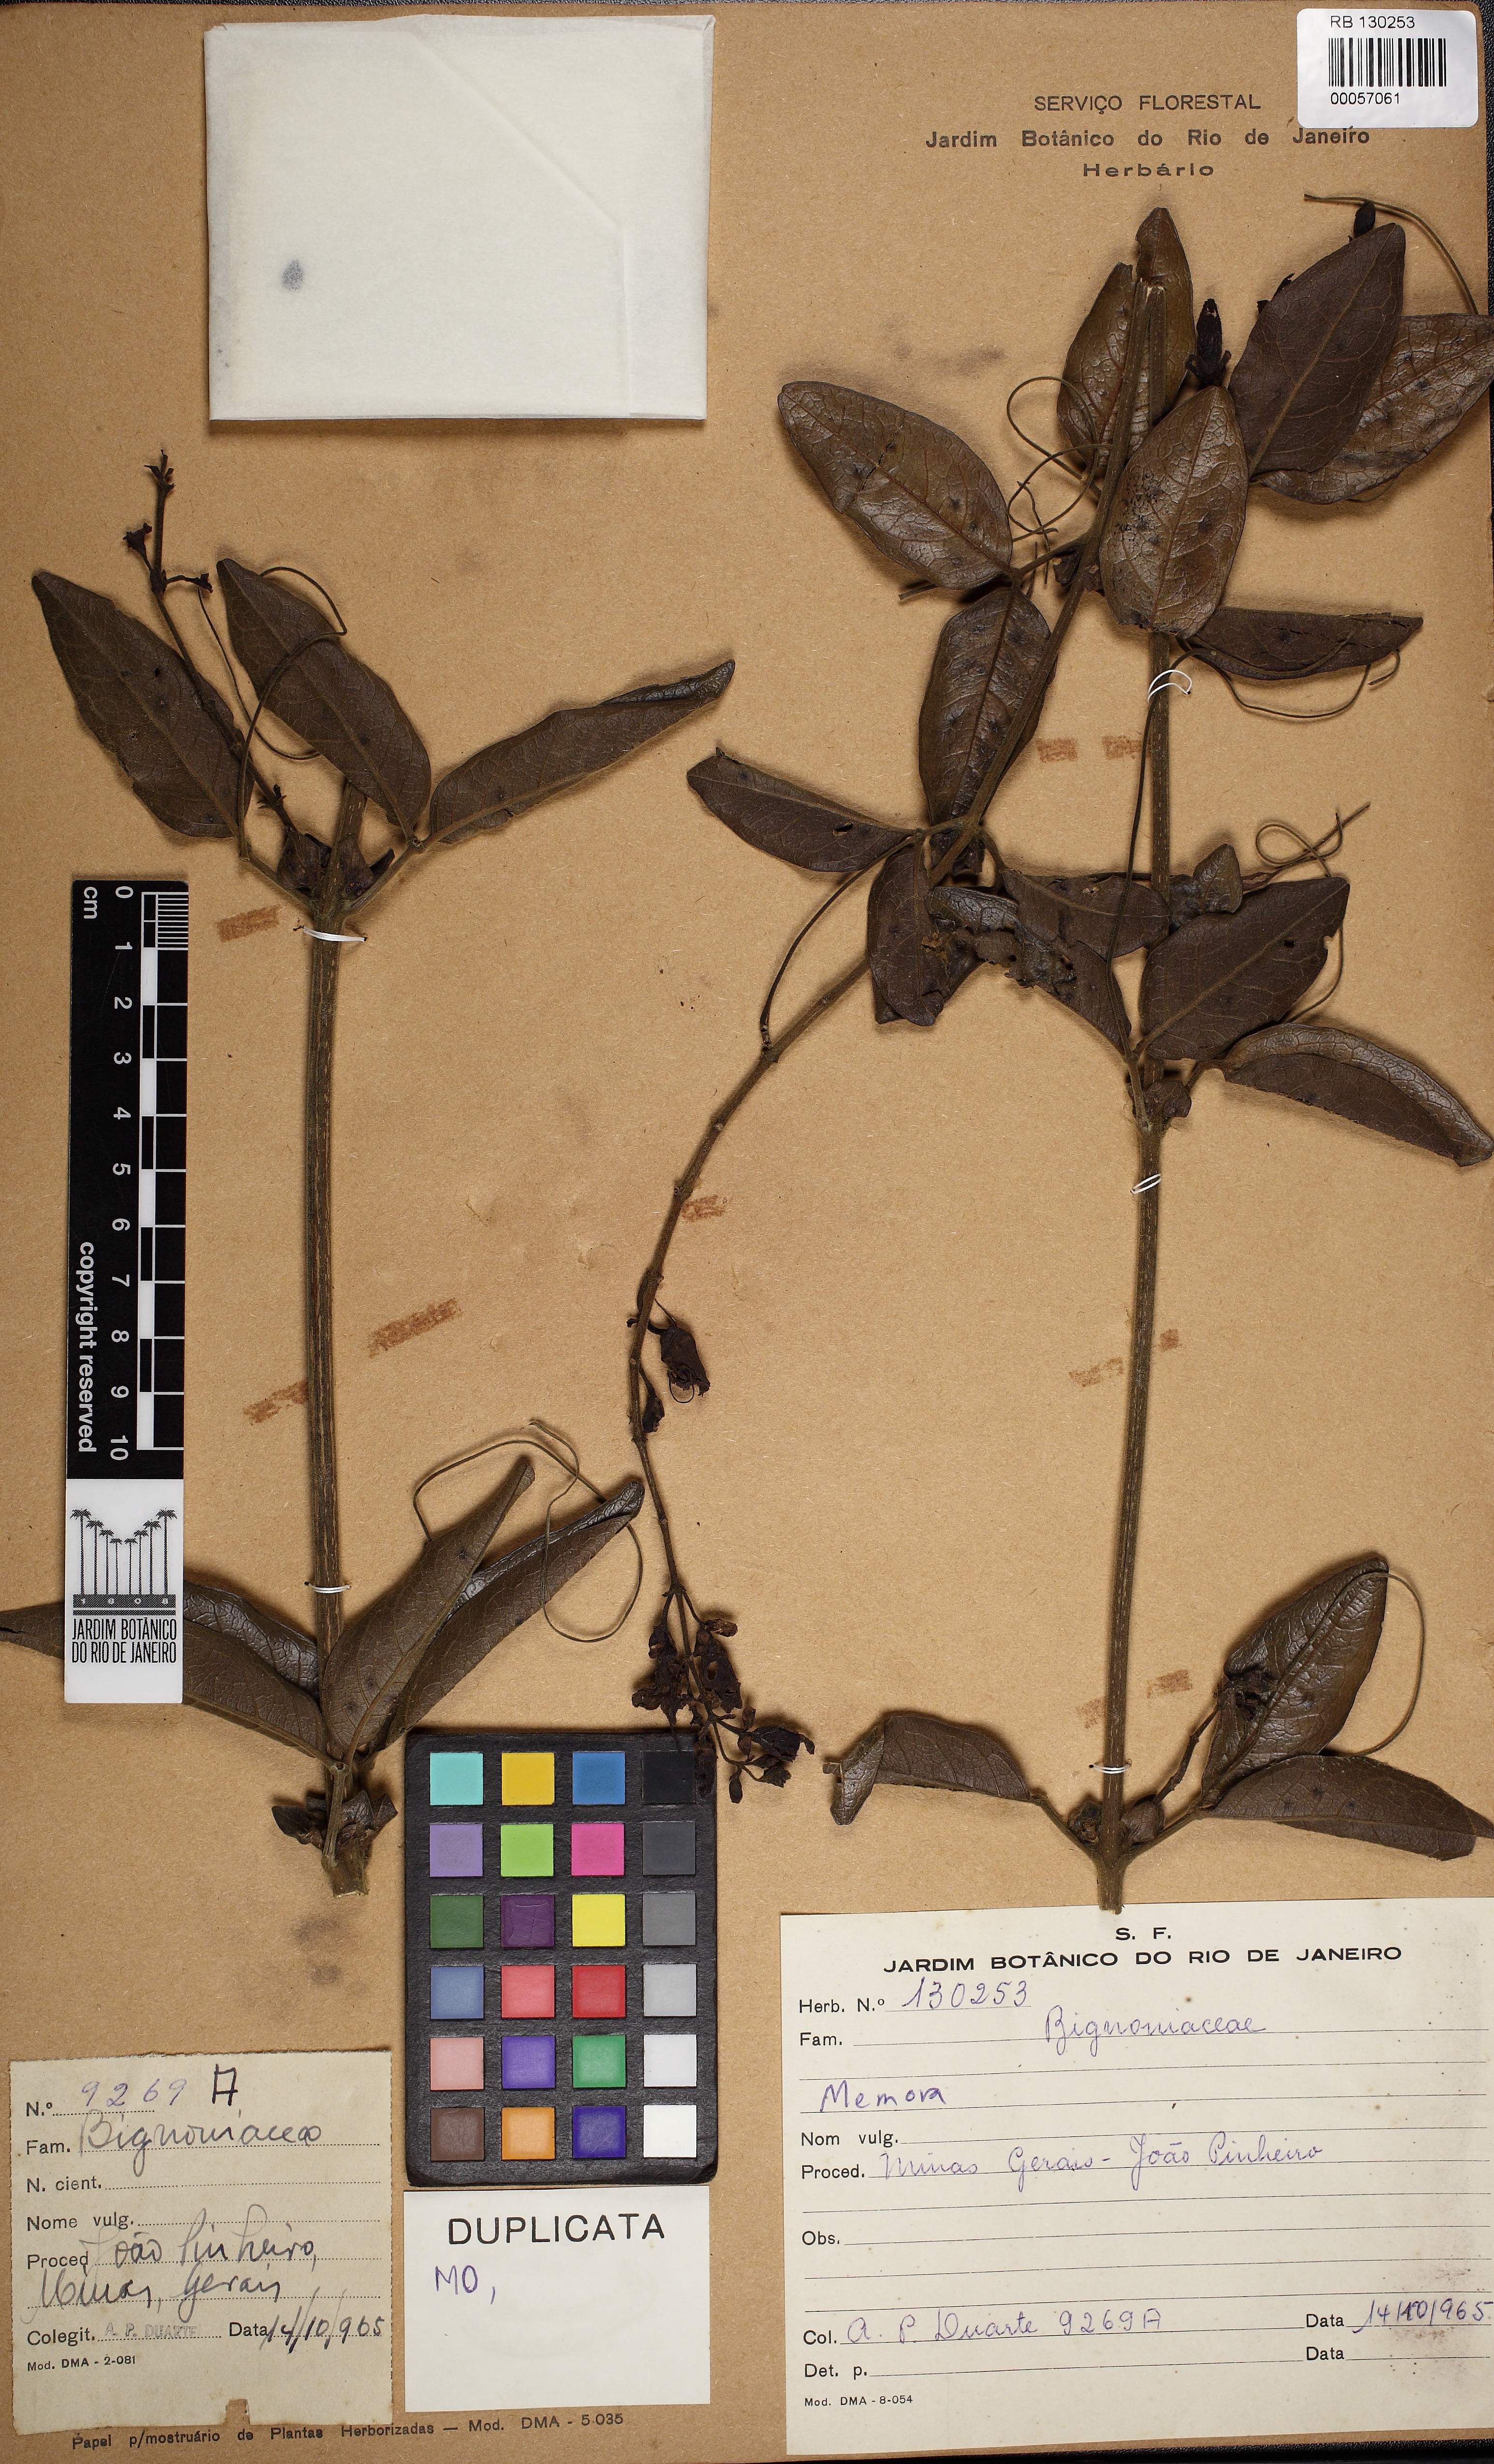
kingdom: Plantae
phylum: Tracheophyta
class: Magnoliopsida
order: Lamiales
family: Bignoniaceae
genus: Adenocalymma
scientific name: Adenocalymma
